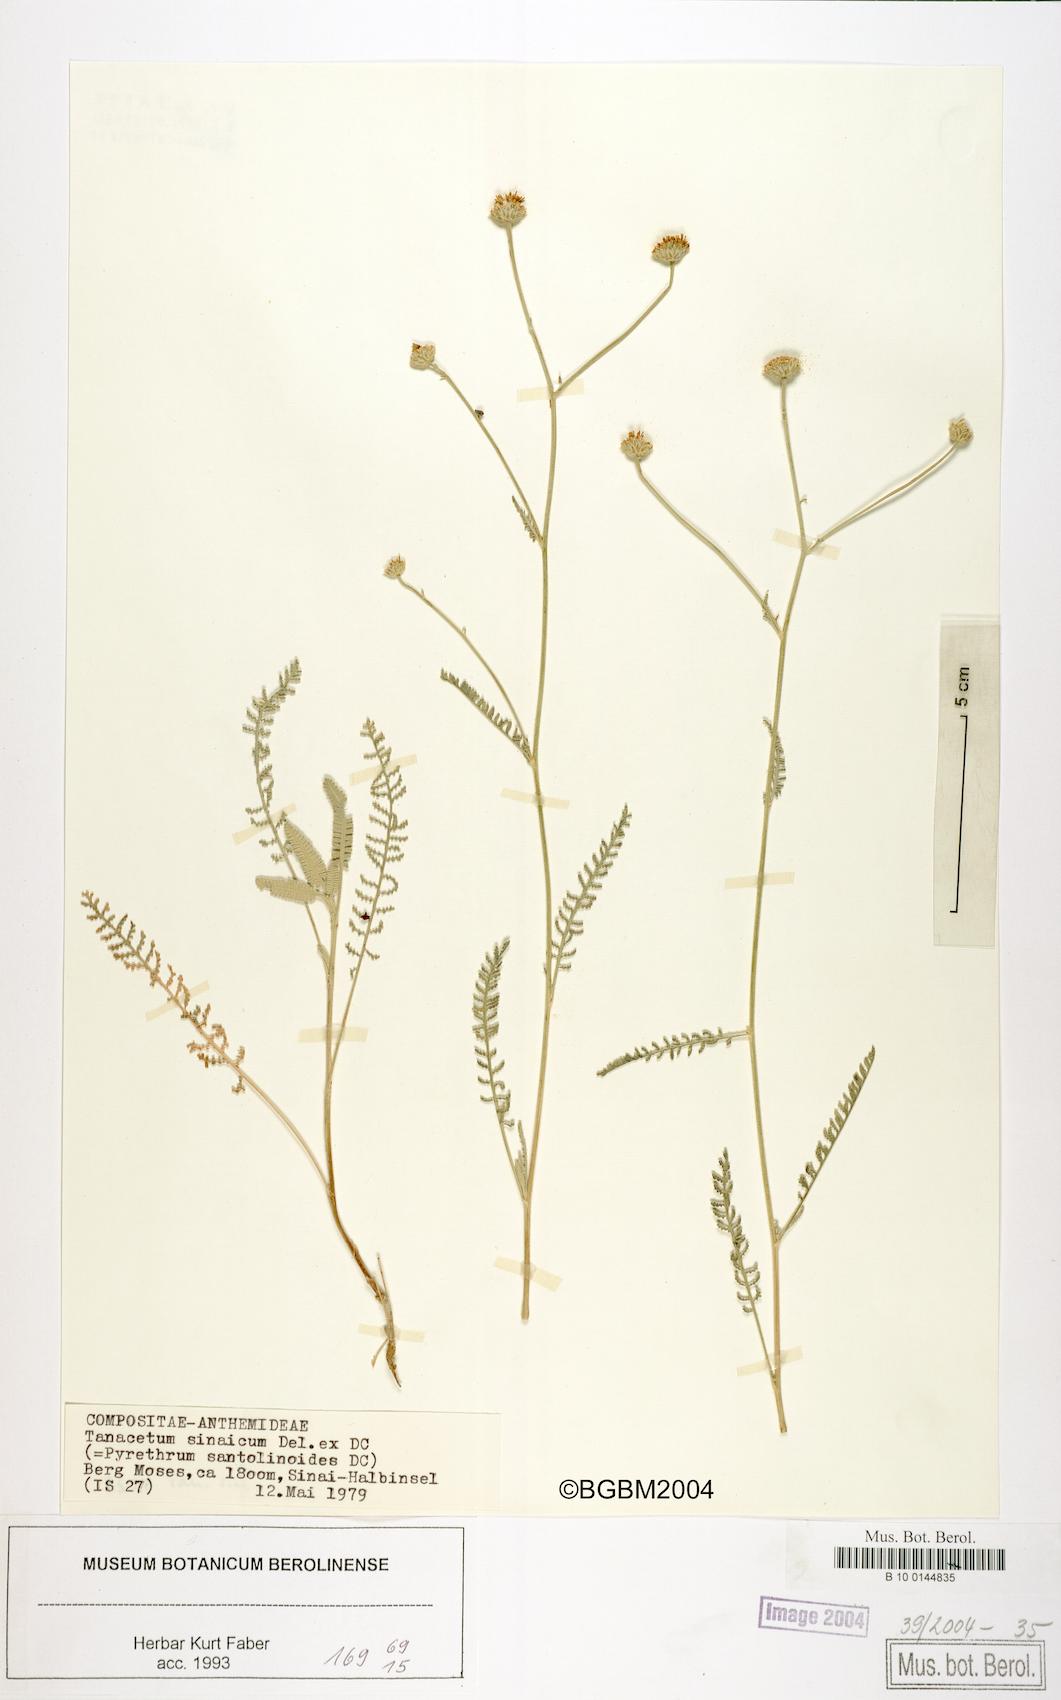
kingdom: Plantae
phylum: Tracheophyta
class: Magnoliopsida
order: Asterales
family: Asteraceae
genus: Tanacetum
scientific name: Tanacetum sinaicum
